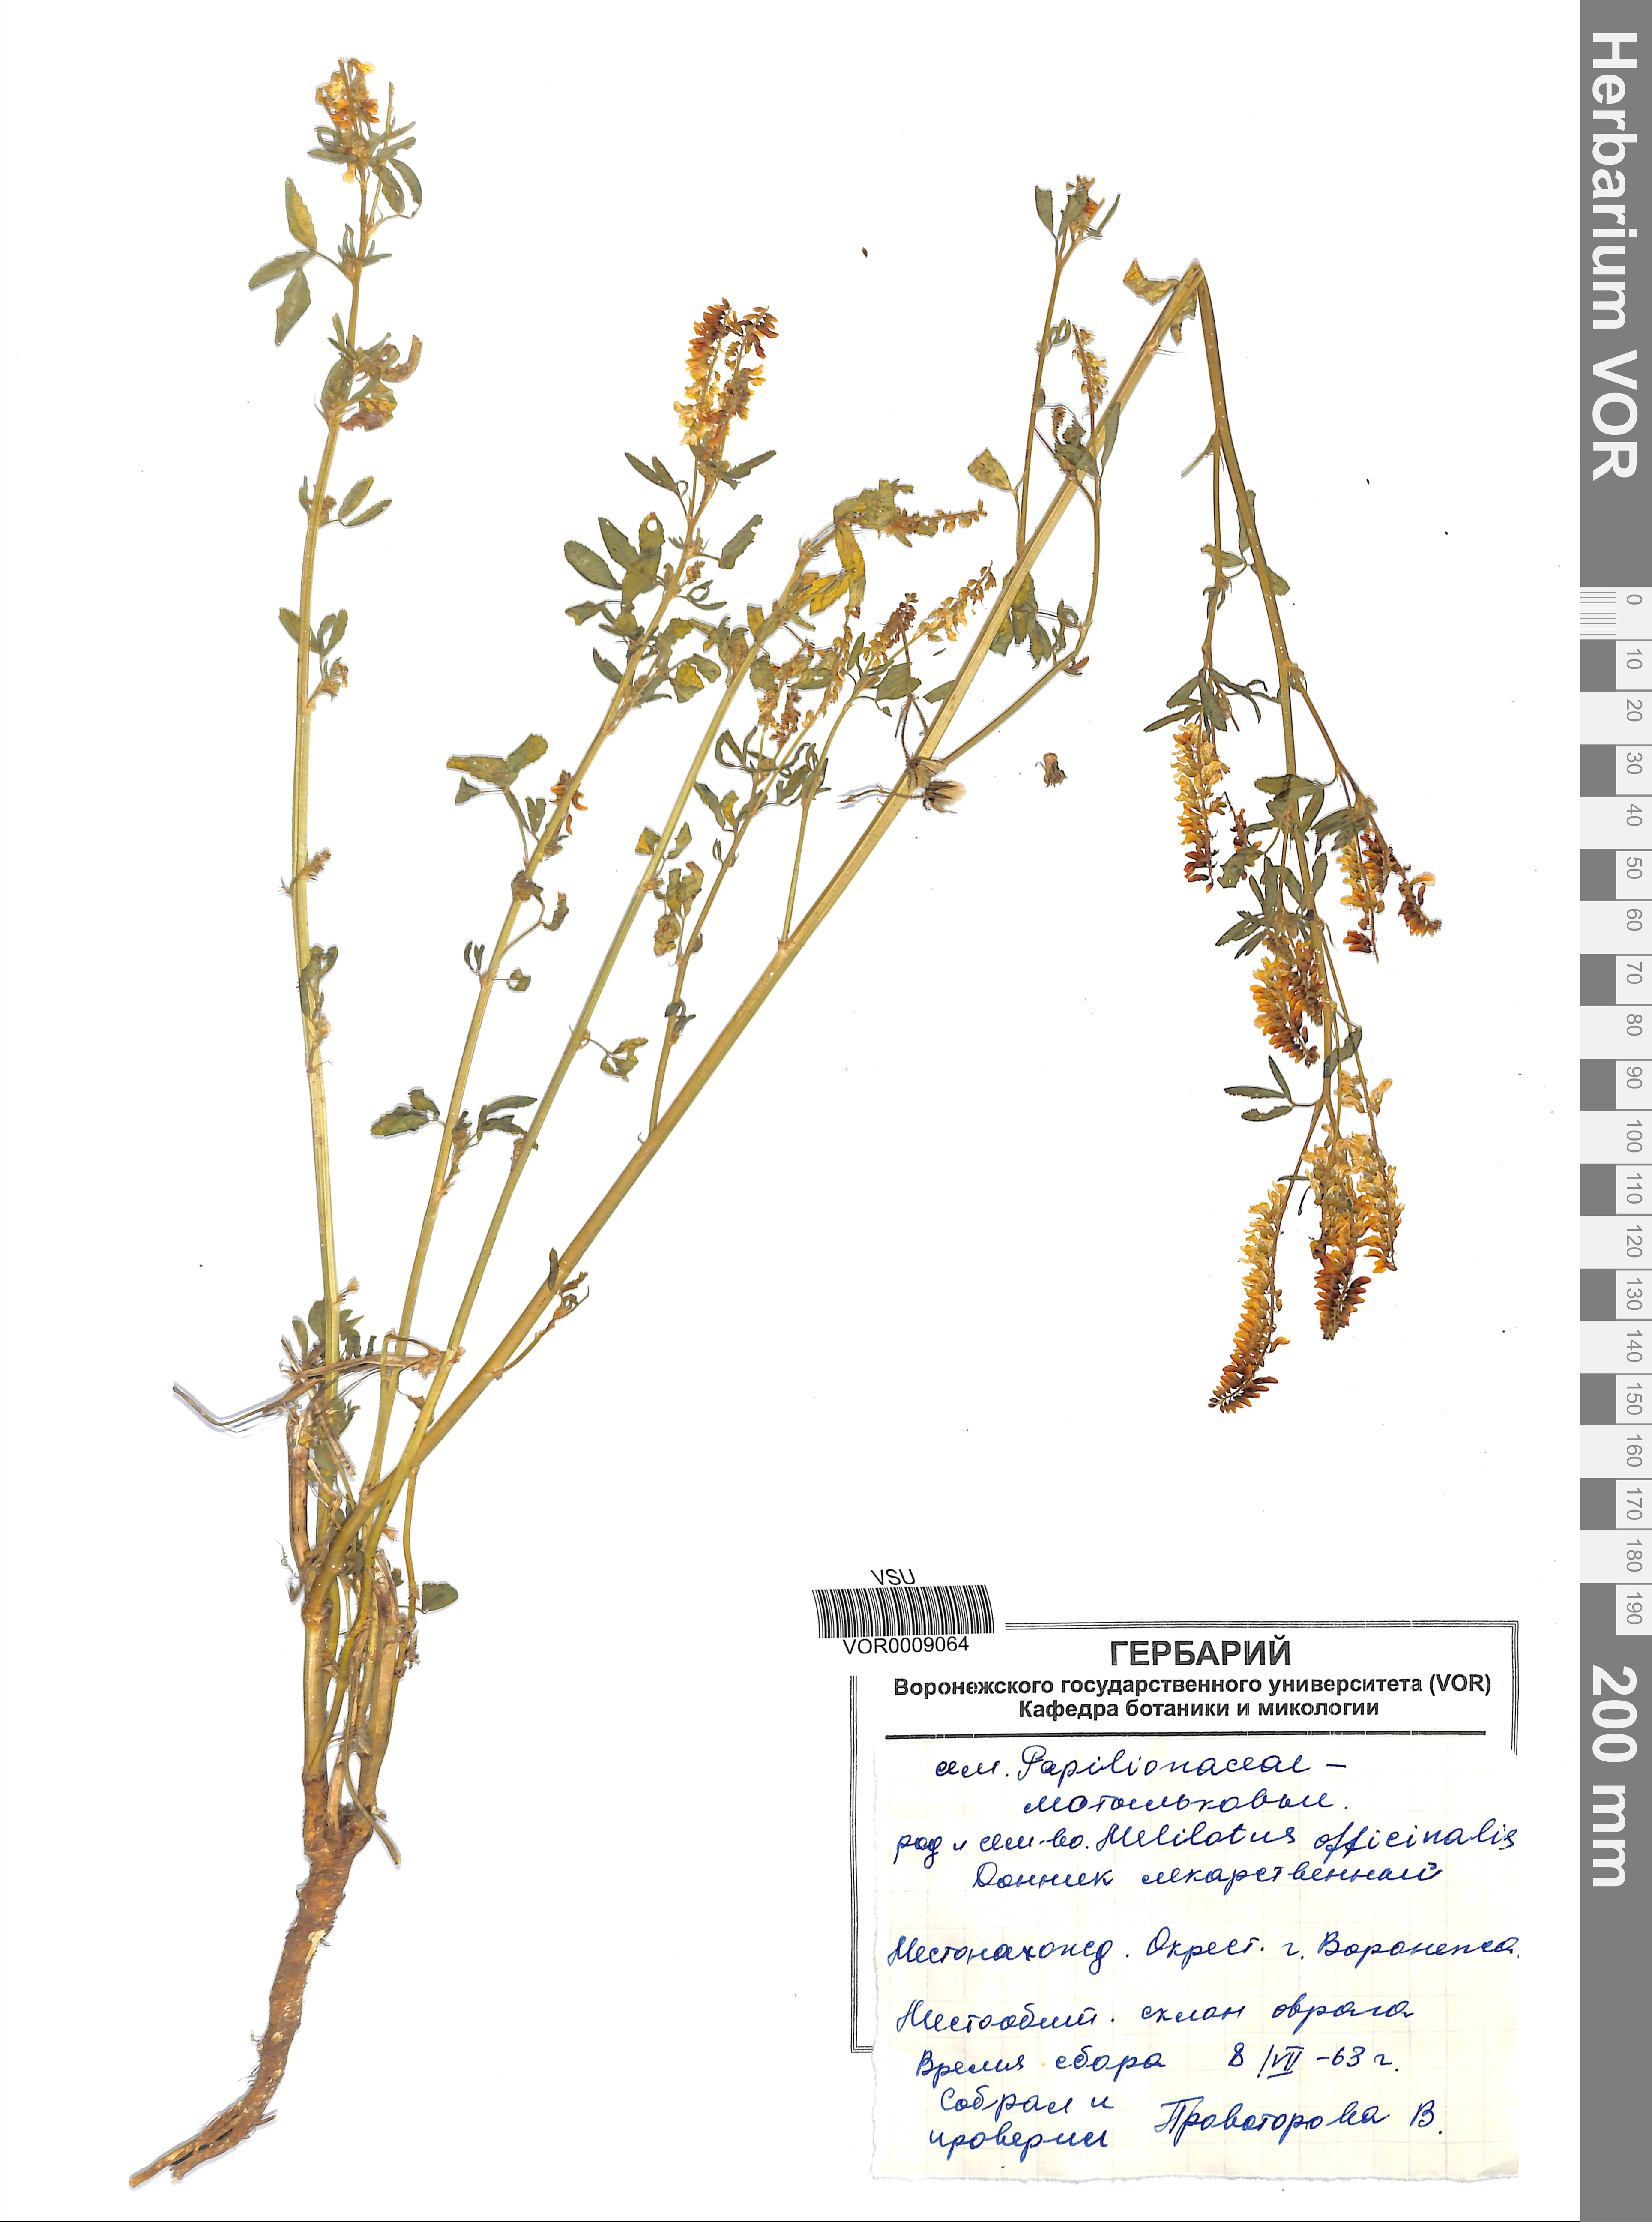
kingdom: Plantae
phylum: Tracheophyta
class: Magnoliopsida
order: Fabales
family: Fabaceae
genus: Melilotus
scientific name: Melilotus officinalis
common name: Sweetclover
